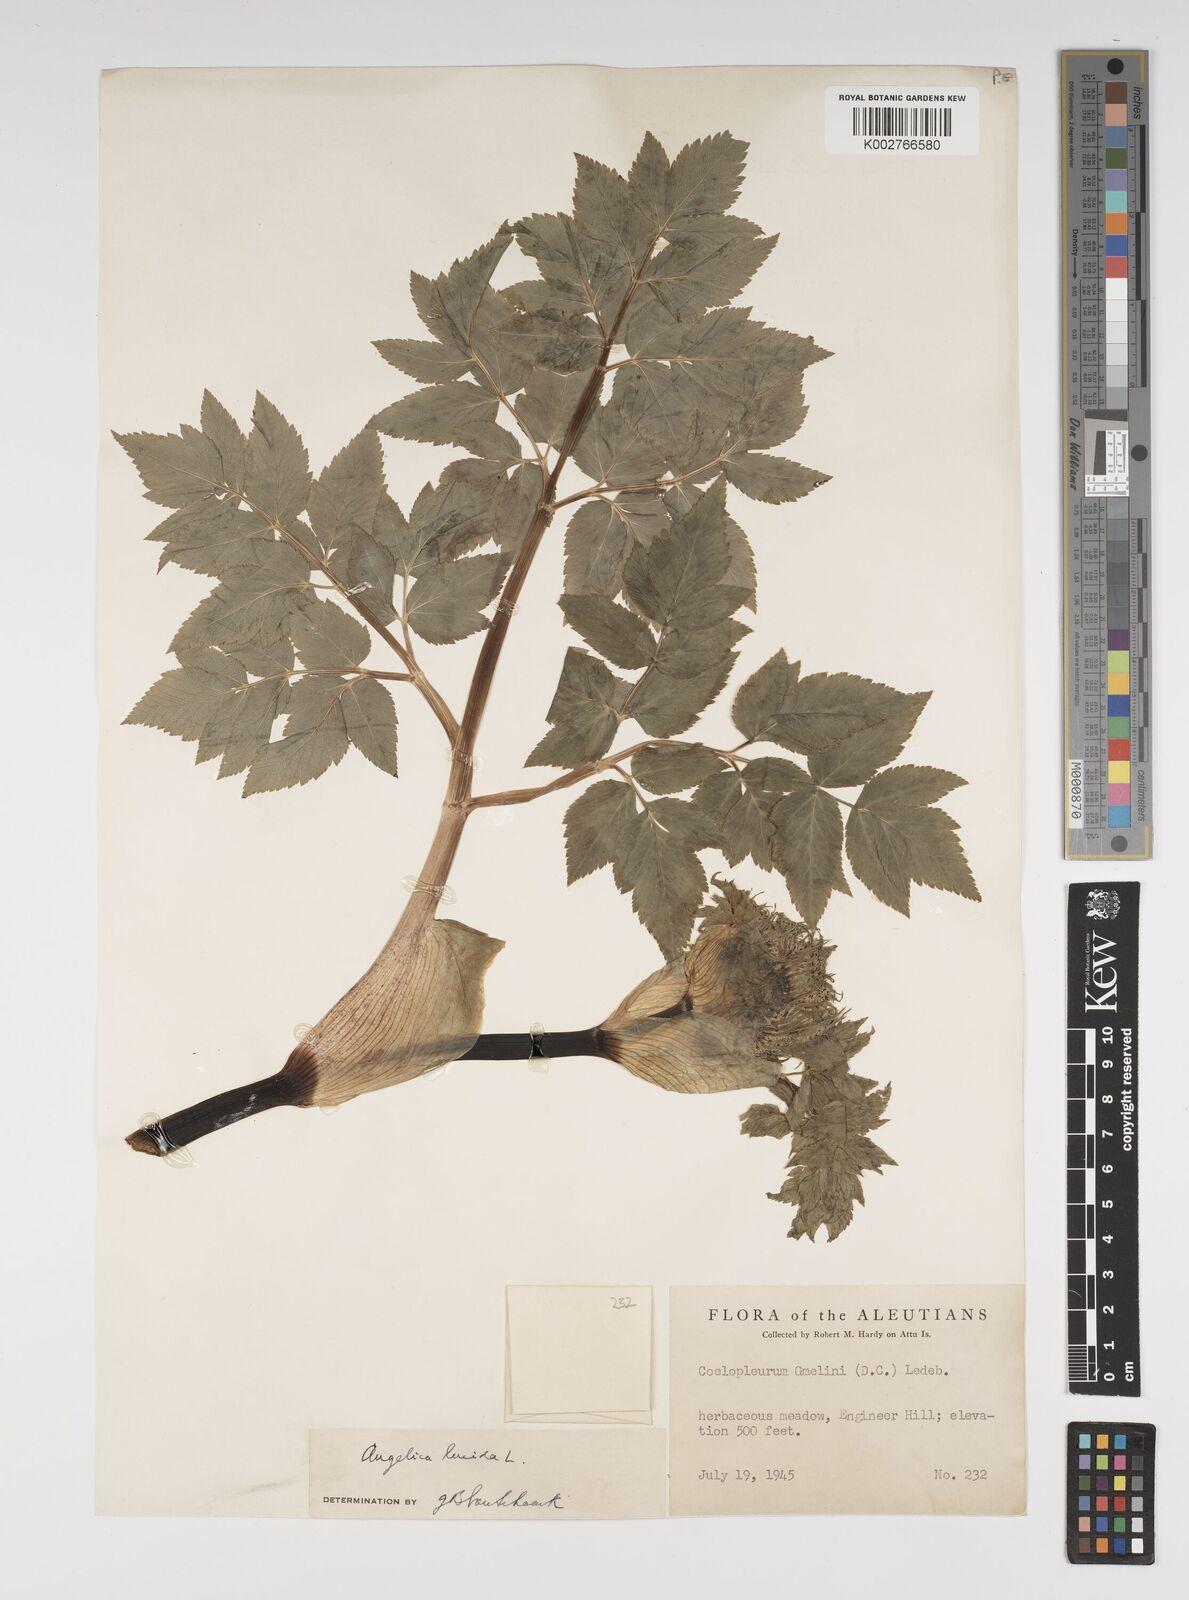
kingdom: Plantae
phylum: Tracheophyta
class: Magnoliopsida
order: Apiales
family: Apiaceae
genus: Angelica
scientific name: Angelica lucida
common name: Seabeach angelica
